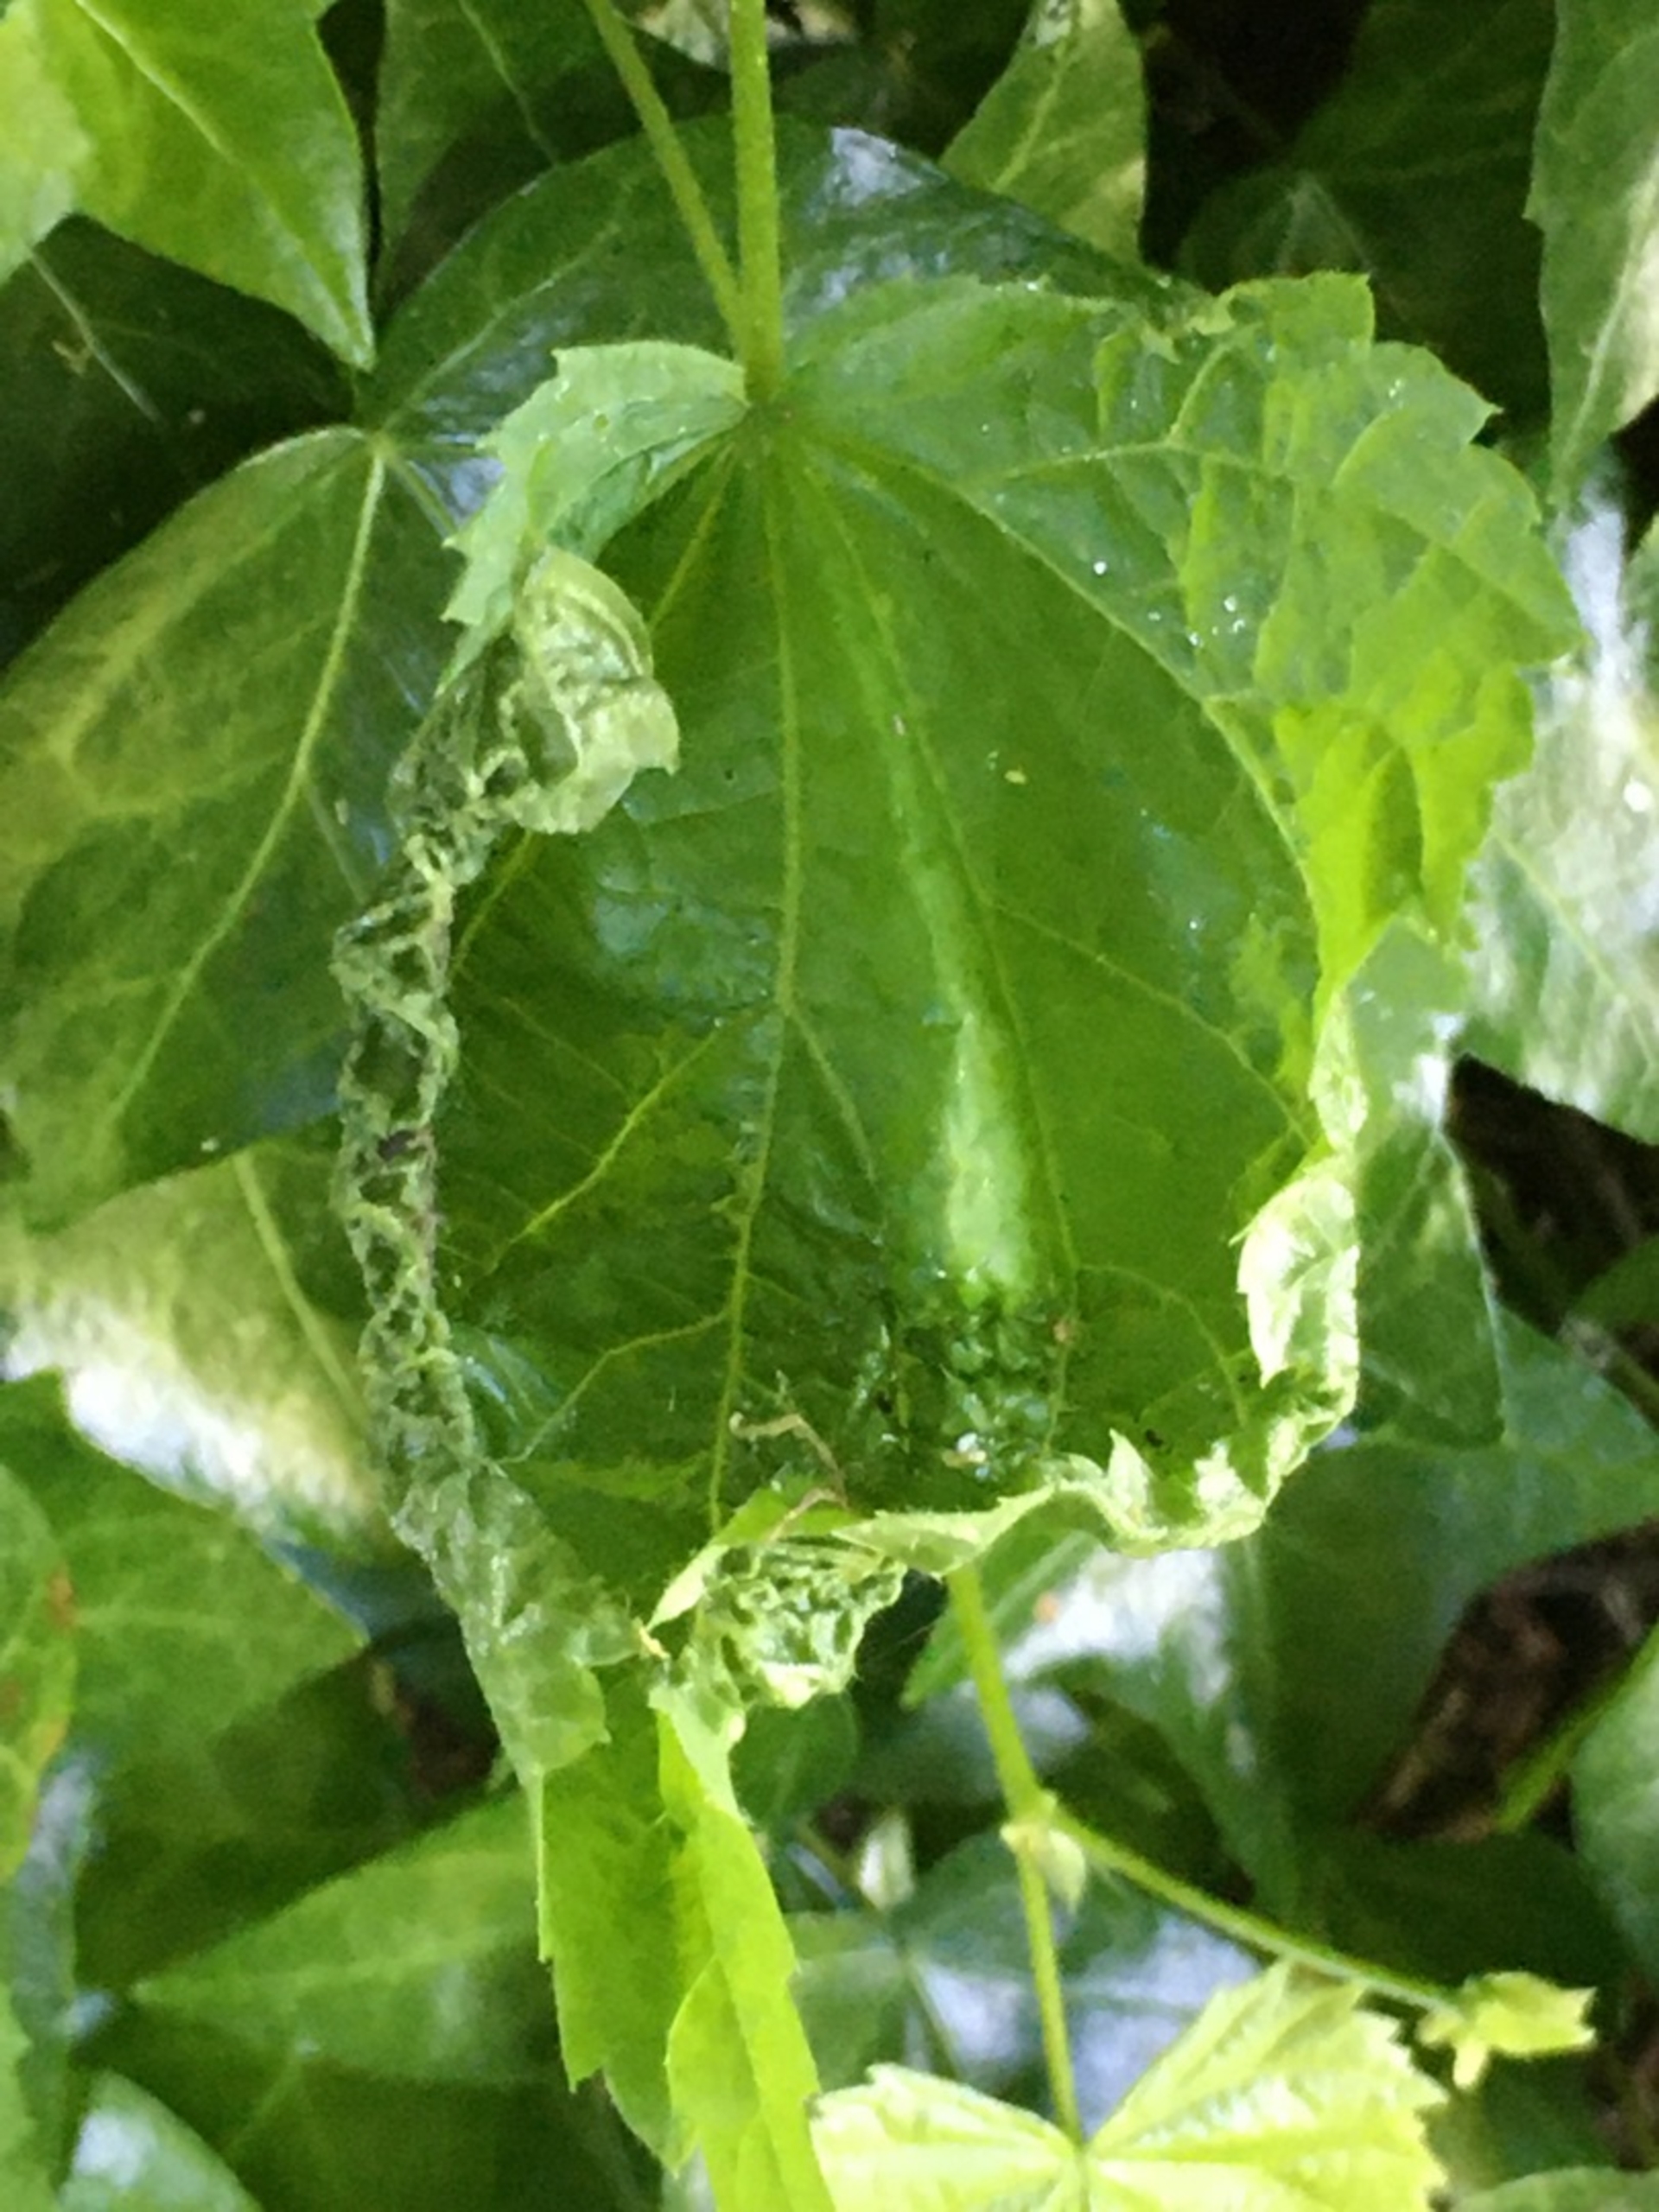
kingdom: Animalia
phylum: Arthropoda
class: Insecta
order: Diptera
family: Cecidomyiidae
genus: Dasineura
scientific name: Dasineura thomasiana
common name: Lindekrusegalmyg
